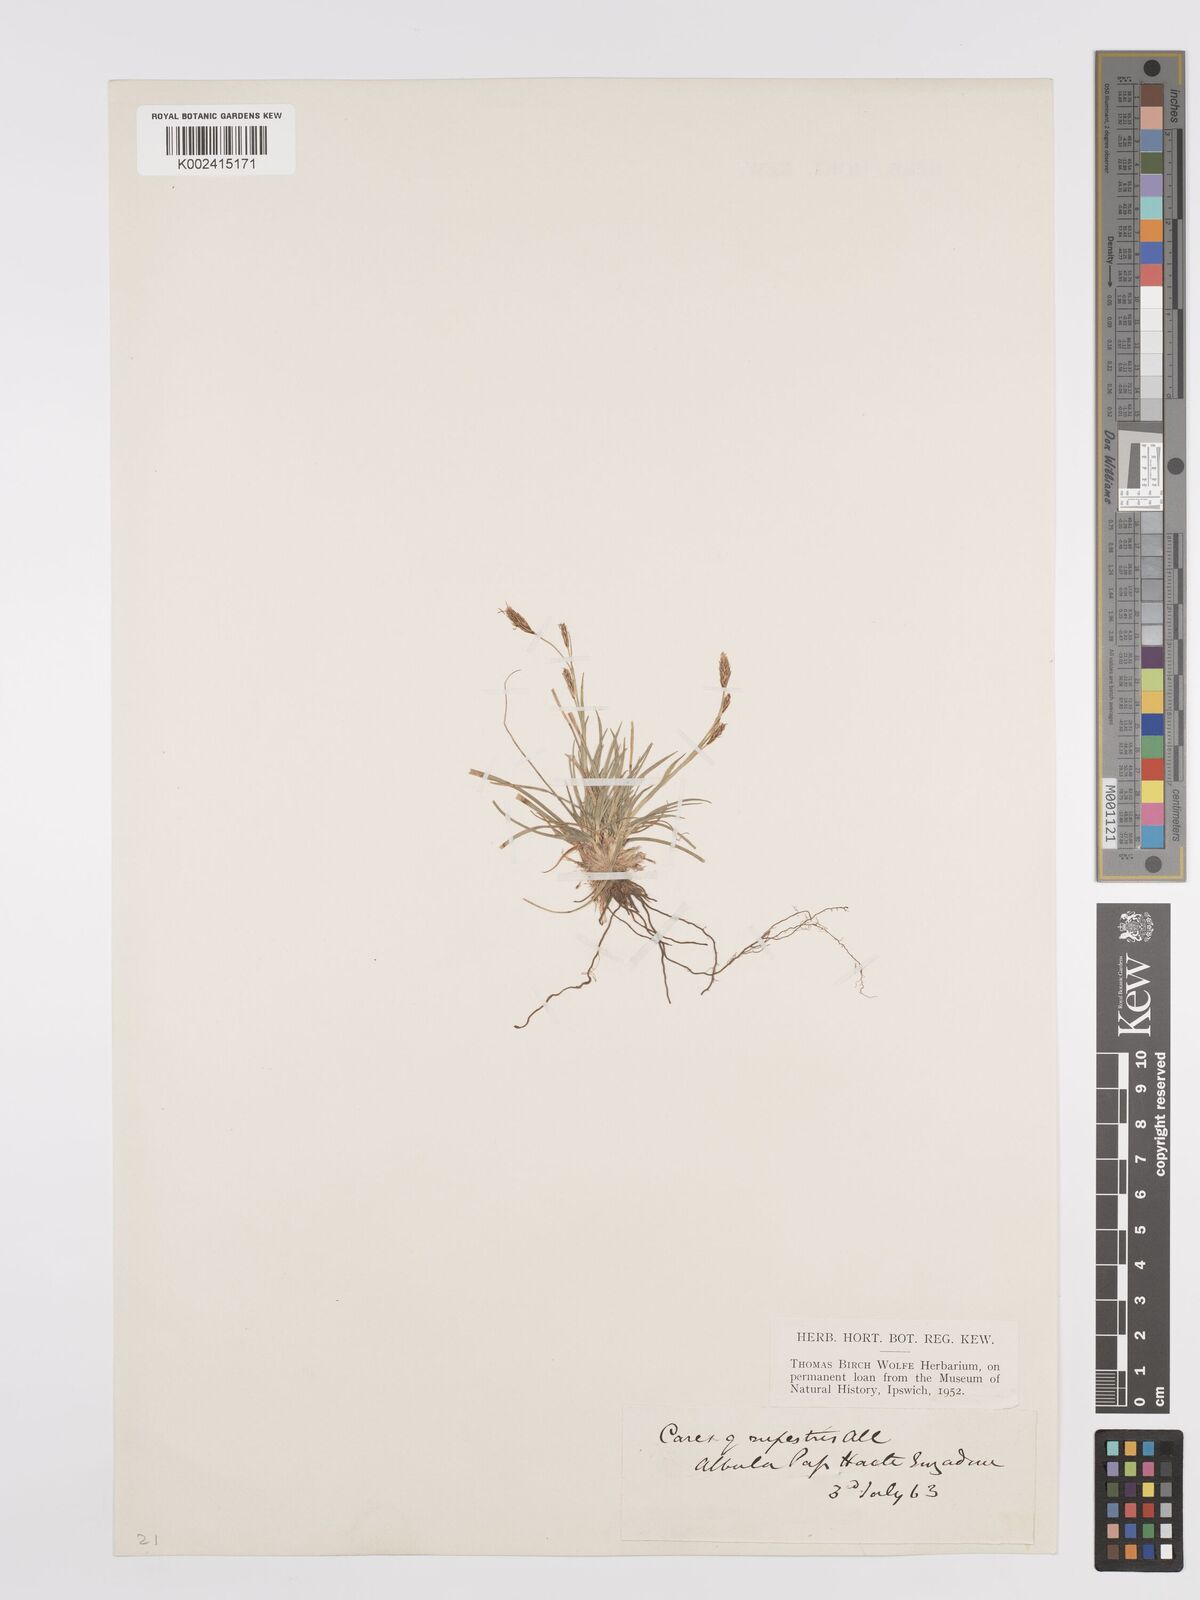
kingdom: Plantae
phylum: Tracheophyta
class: Liliopsida
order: Poales
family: Cyperaceae
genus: Carex
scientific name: Carex rupestris
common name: Rock sedge
